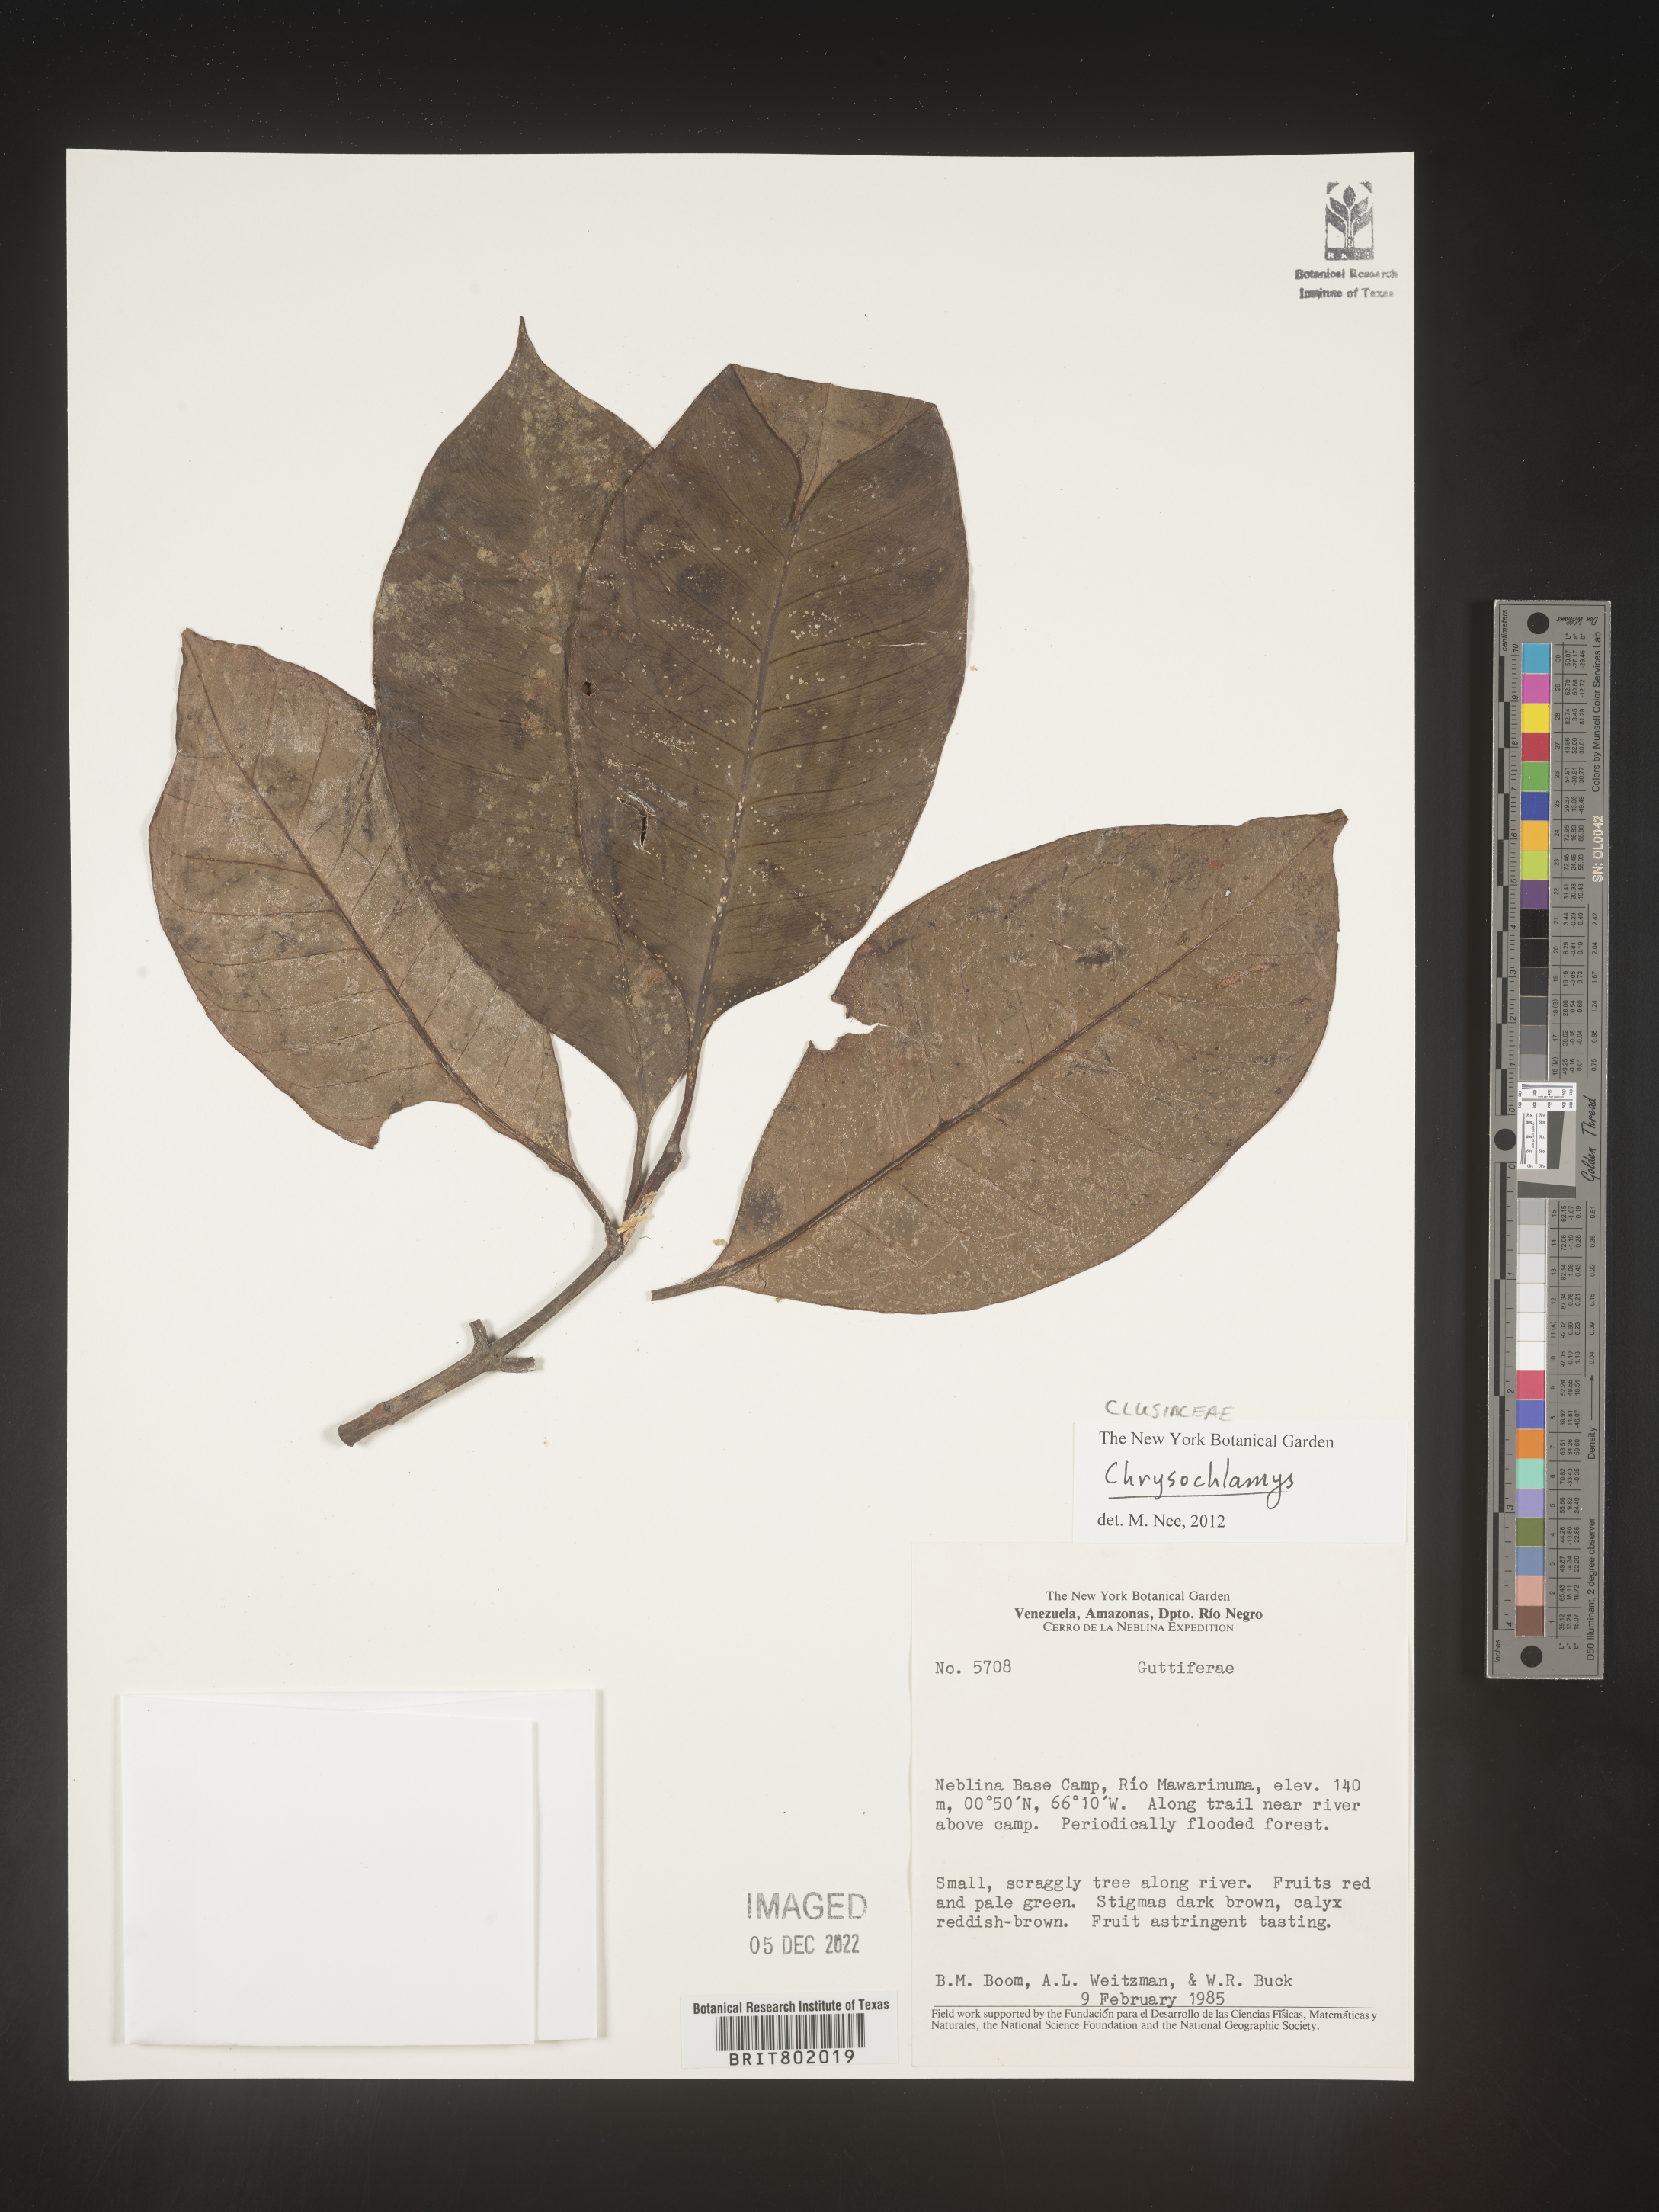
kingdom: Plantae
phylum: Tracheophyta
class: Magnoliopsida
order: Malpighiales
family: Clusiaceae
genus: Chrysochlamys
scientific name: Chrysochlamys
